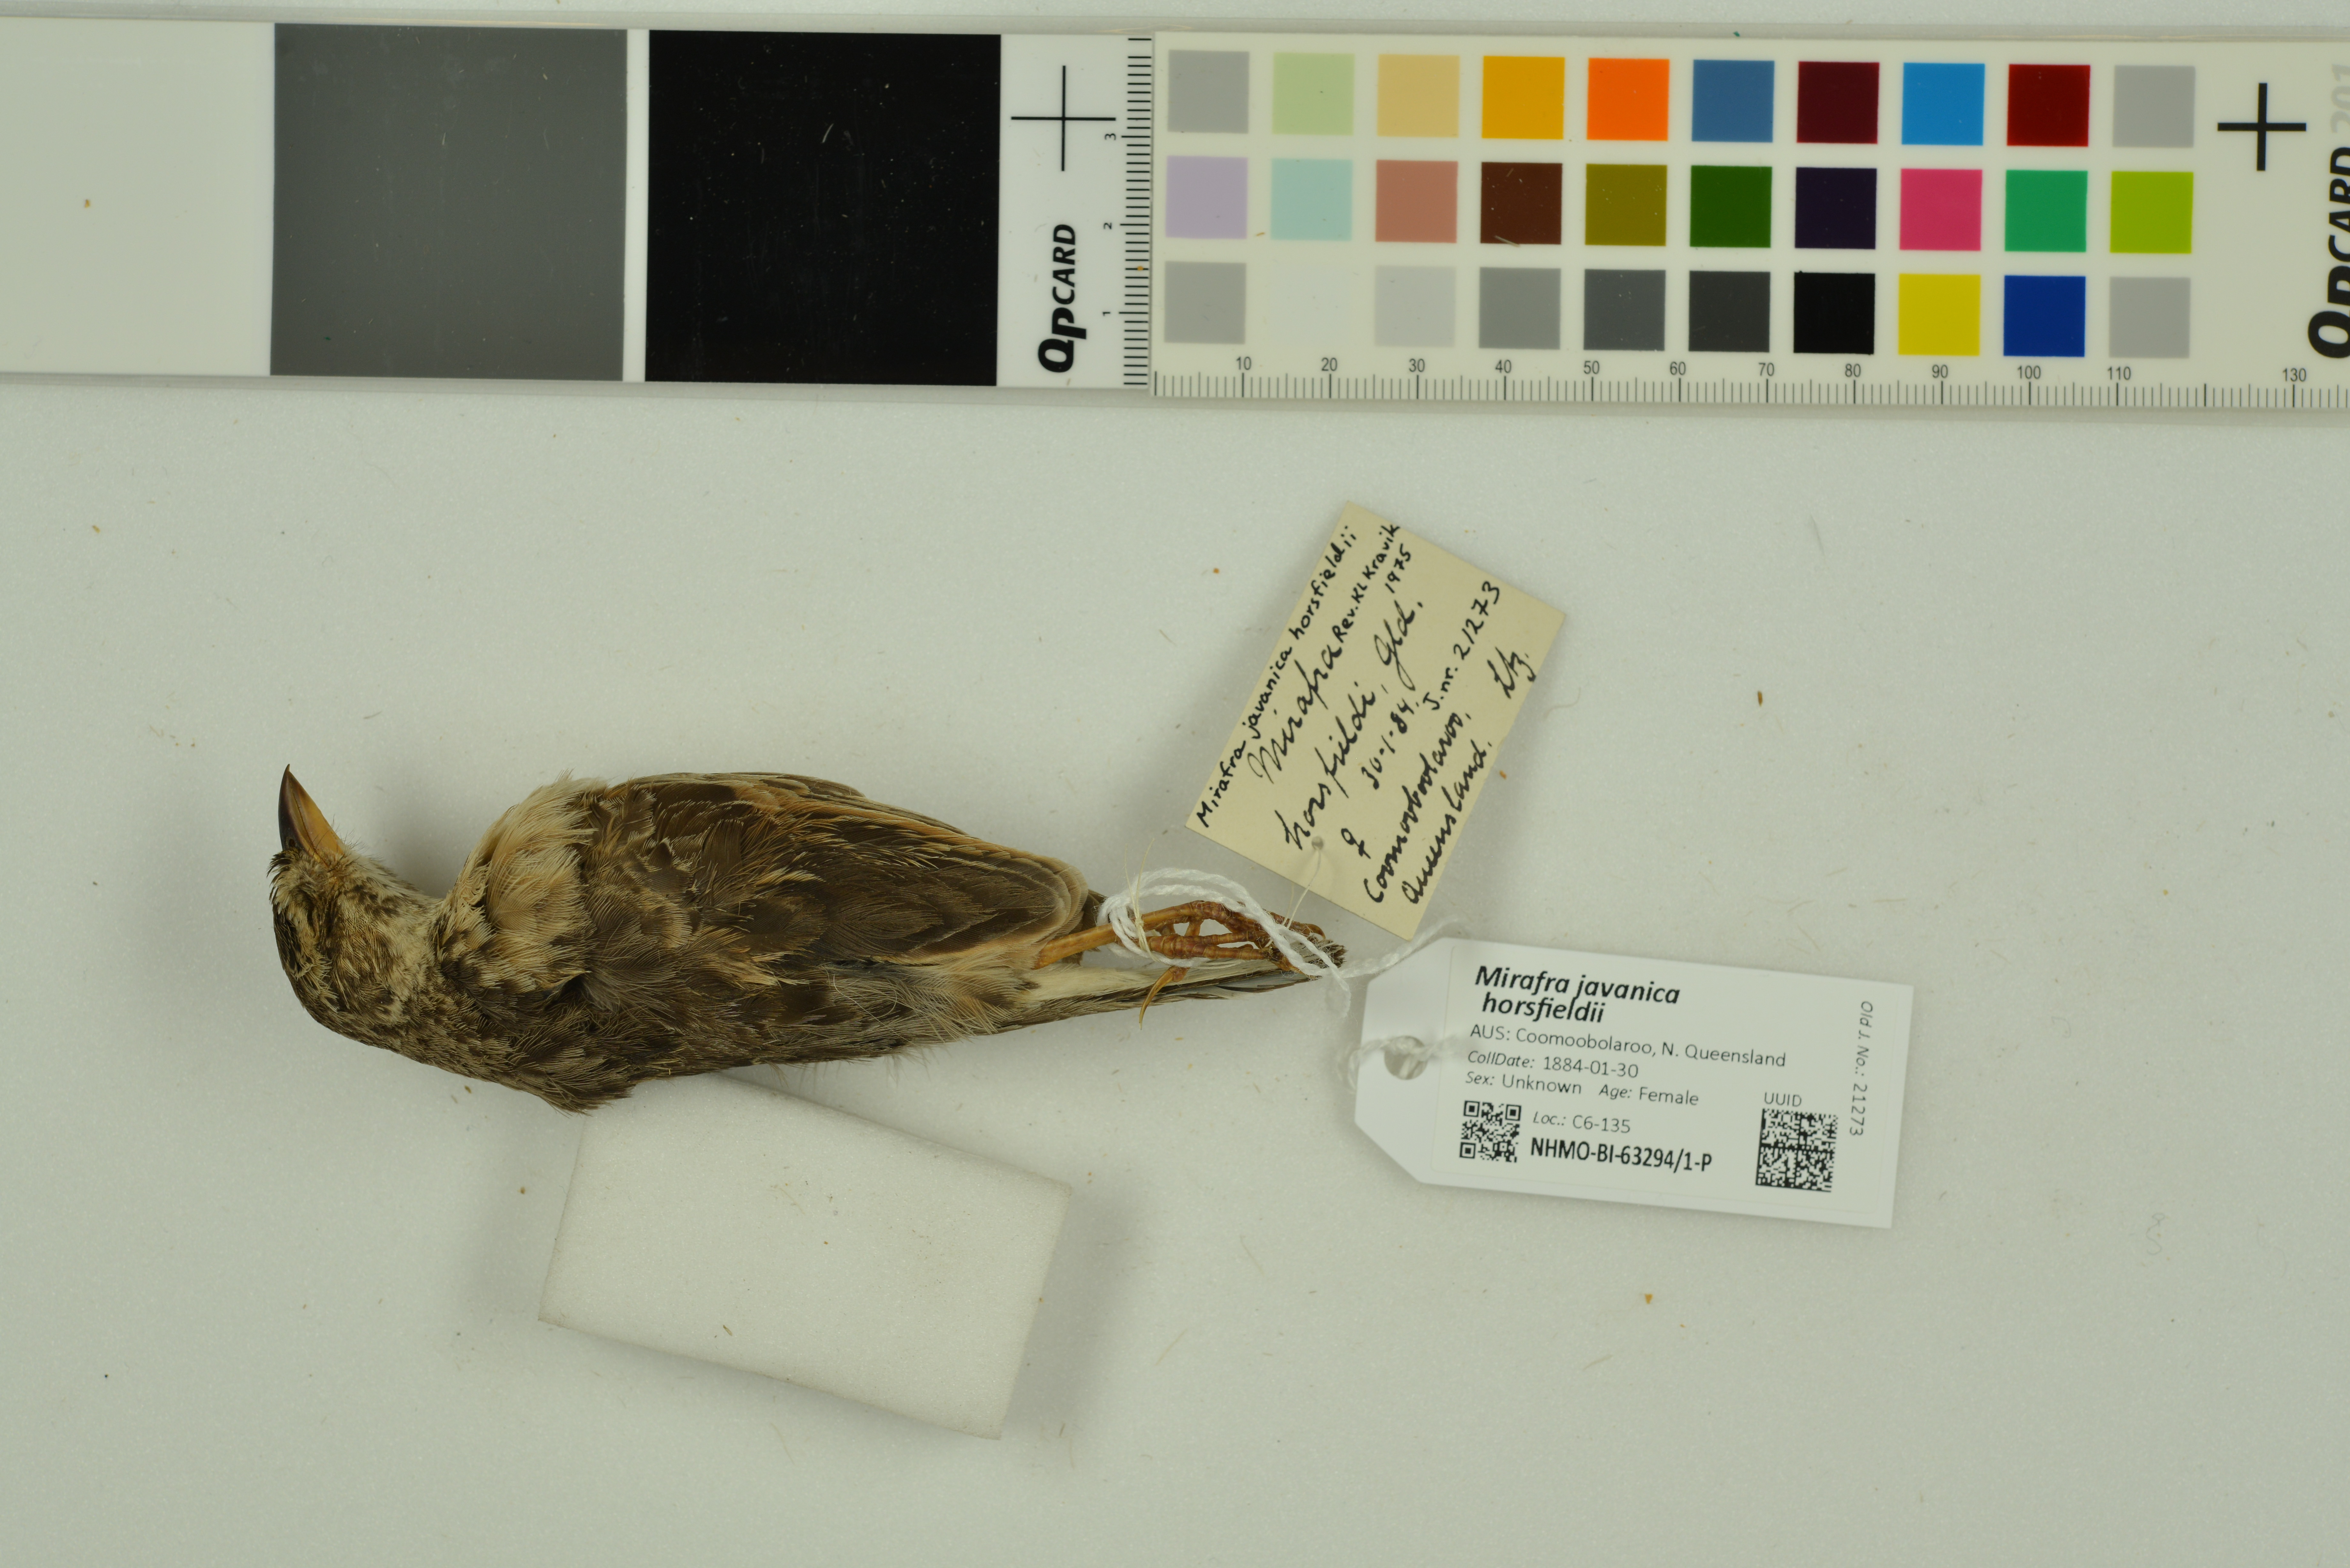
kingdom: Animalia
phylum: Chordata
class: Aves
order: Passeriformes
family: Alaudidae
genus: Mirafra
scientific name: Mirafra javanica
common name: Horsfield's bush lark
